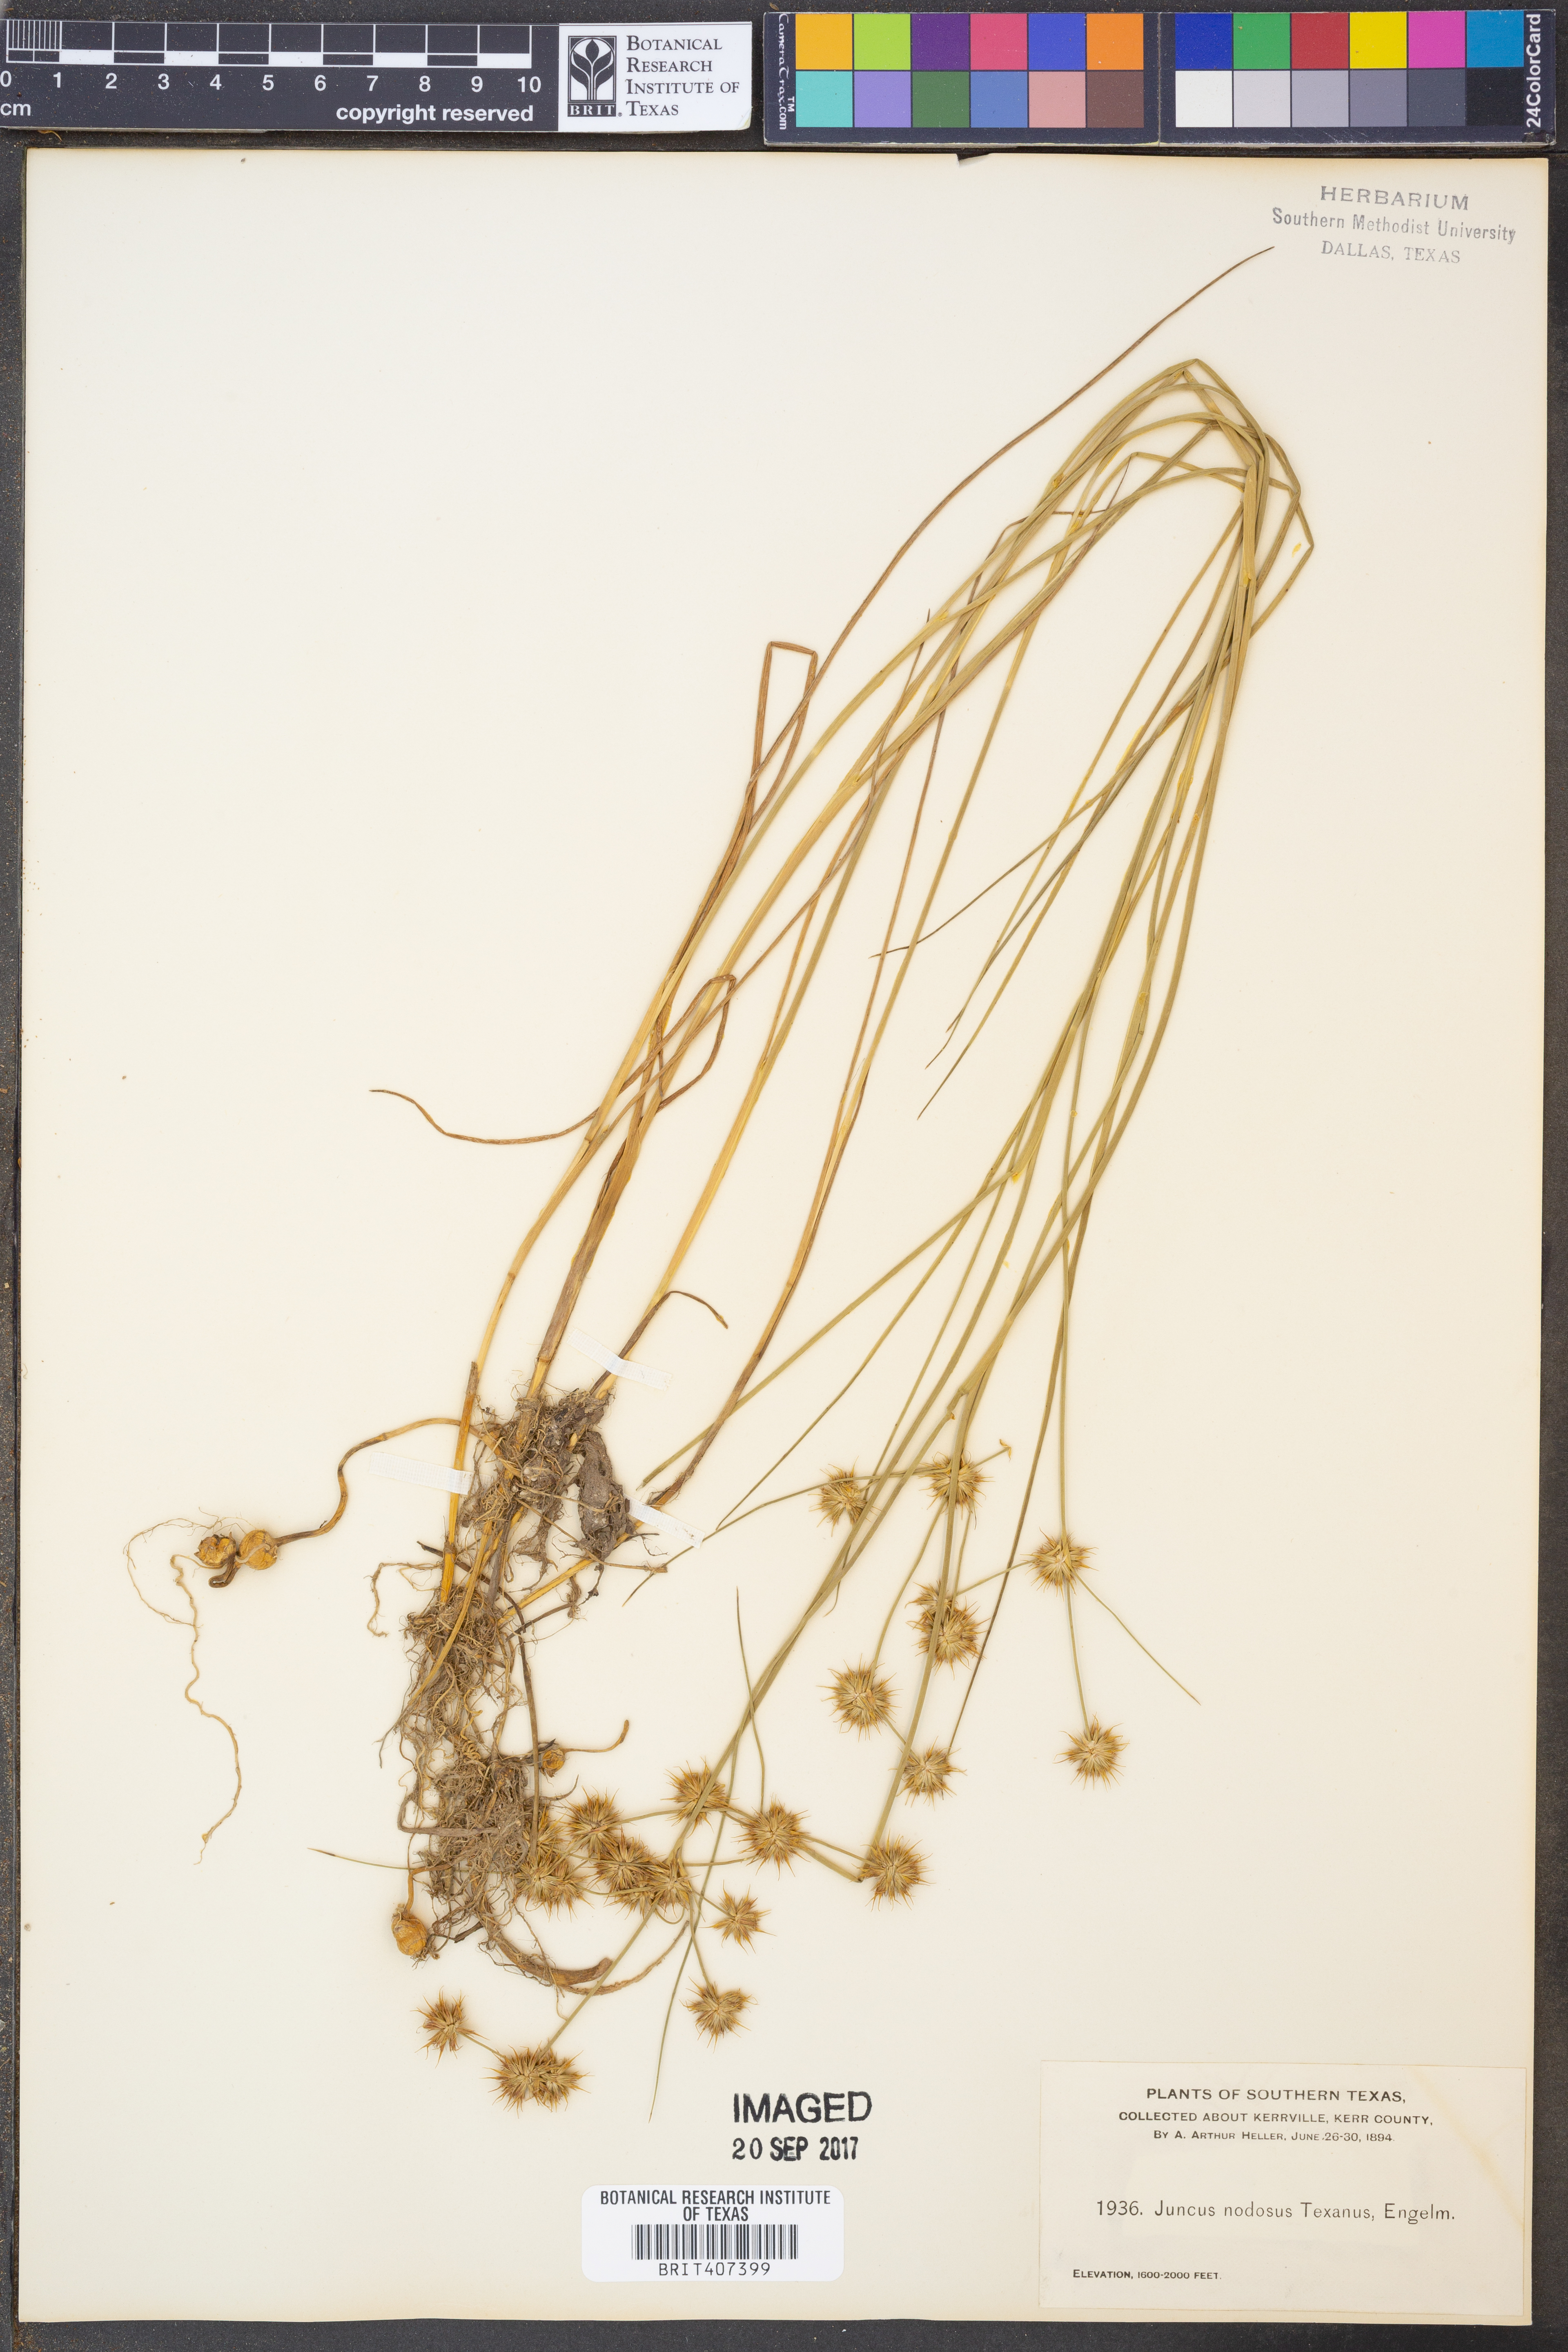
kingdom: Plantae
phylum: Tracheophyta
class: Liliopsida
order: Poales
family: Juncaceae
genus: Juncus
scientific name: Juncus nodosus
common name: Knotted rush
